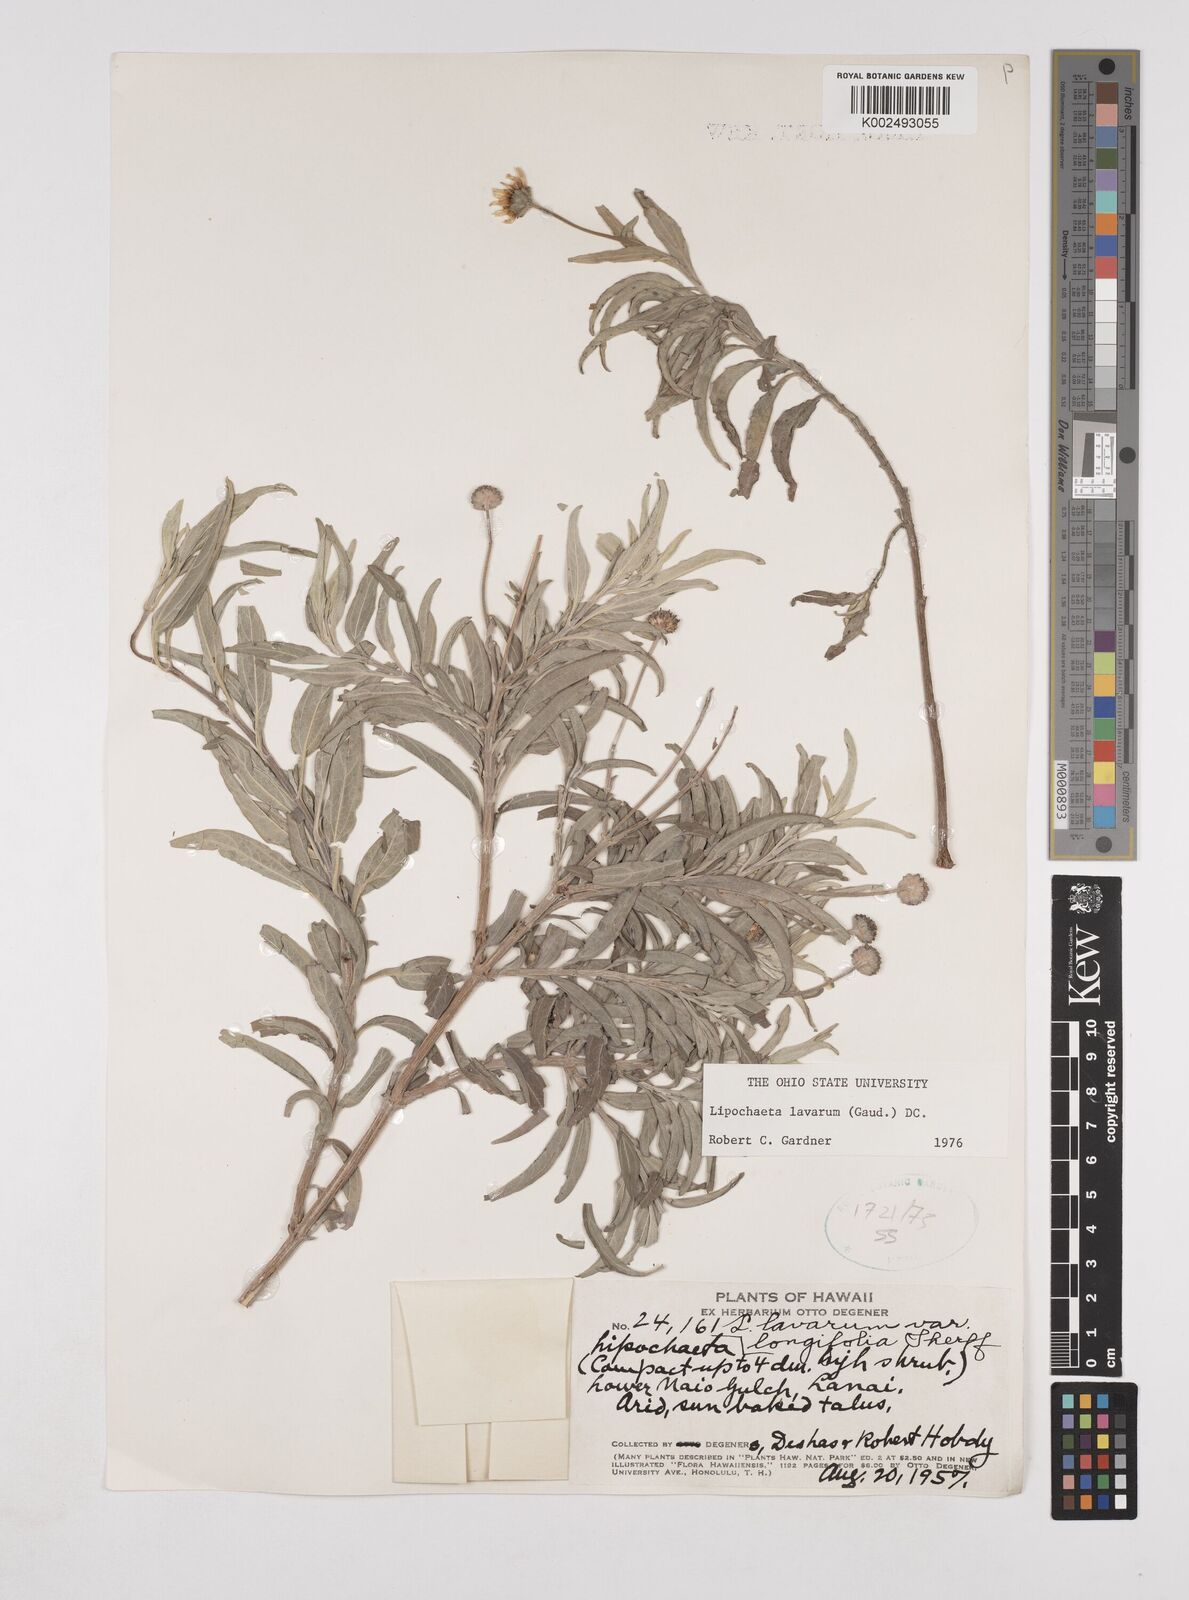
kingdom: Plantae
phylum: Tracheophyta
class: Magnoliopsida
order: Asterales
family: Asteraceae
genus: Lipochaeta
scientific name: Lipochaeta lavarum
